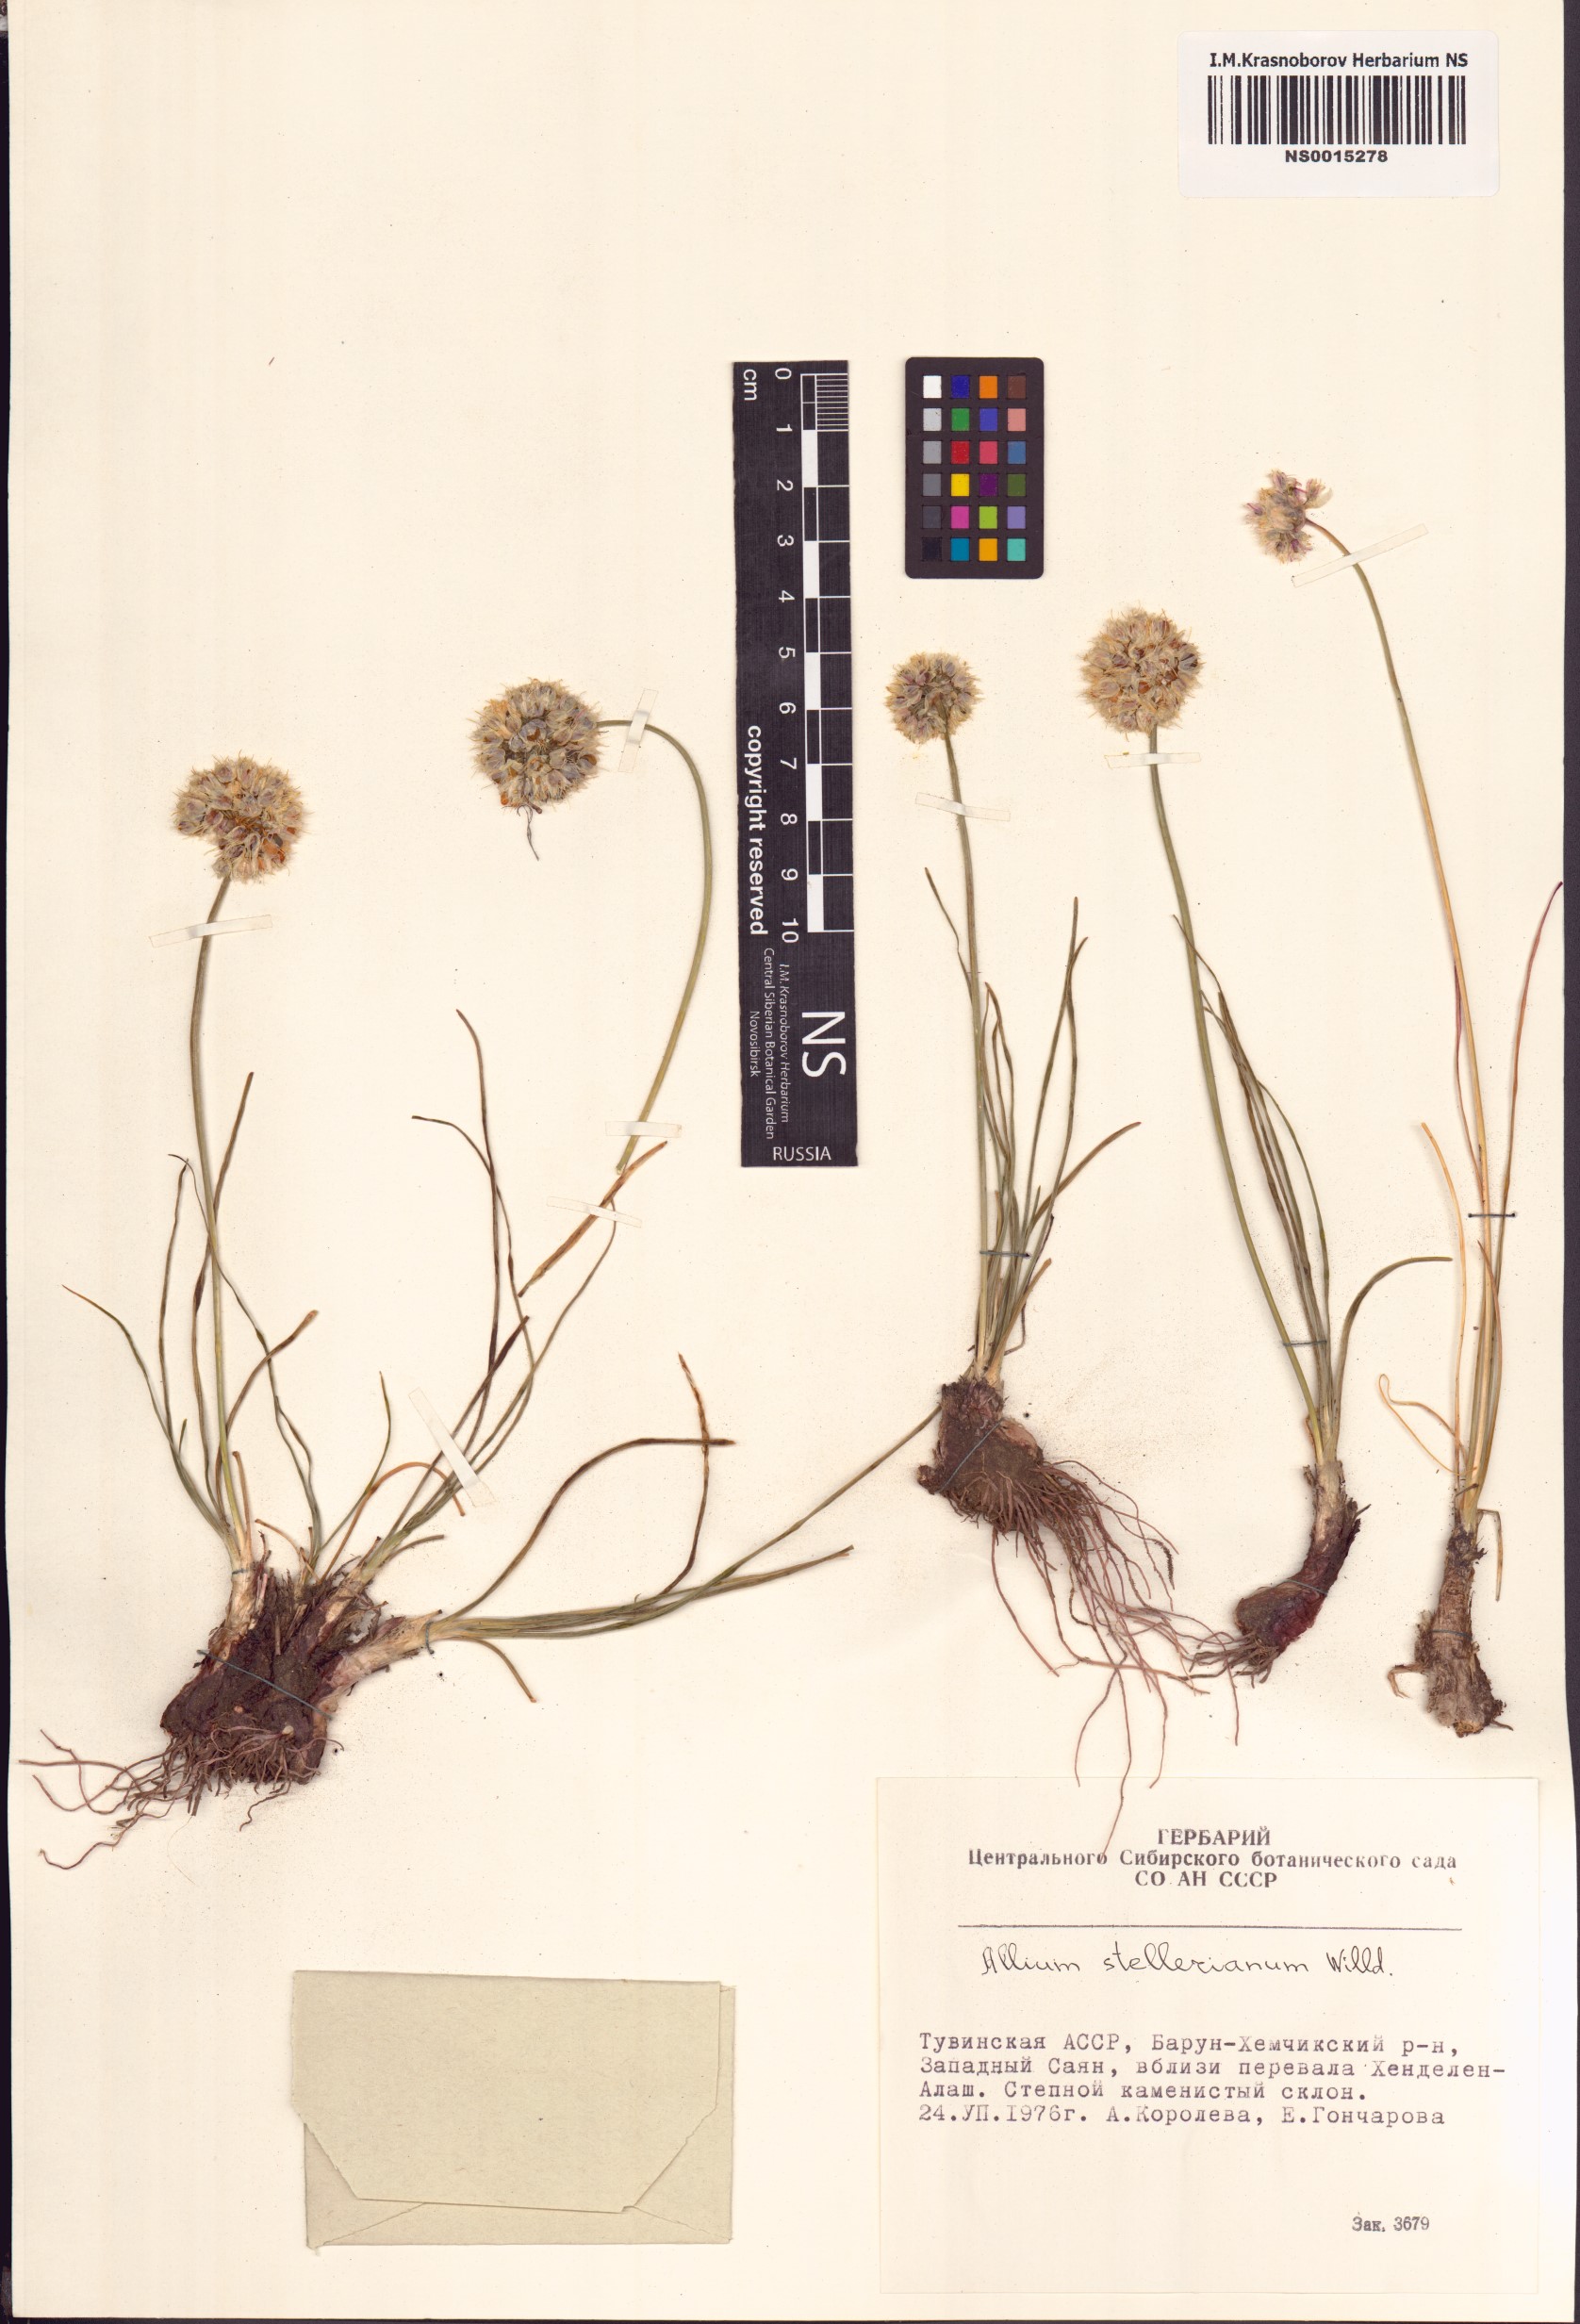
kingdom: Plantae
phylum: Tracheophyta
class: Liliopsida
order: Asparagales
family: Amaryllidaceae
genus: Allium
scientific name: Allium stellerianum
